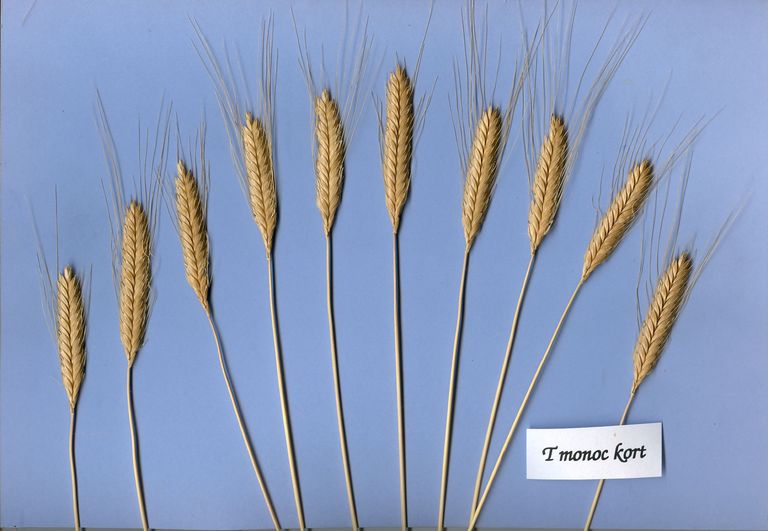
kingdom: Plantae
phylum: Tracheophyta
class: Liliopsida
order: Poales
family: Poaceae
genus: Triticum
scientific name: Triticum monococcum
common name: Einkorn
